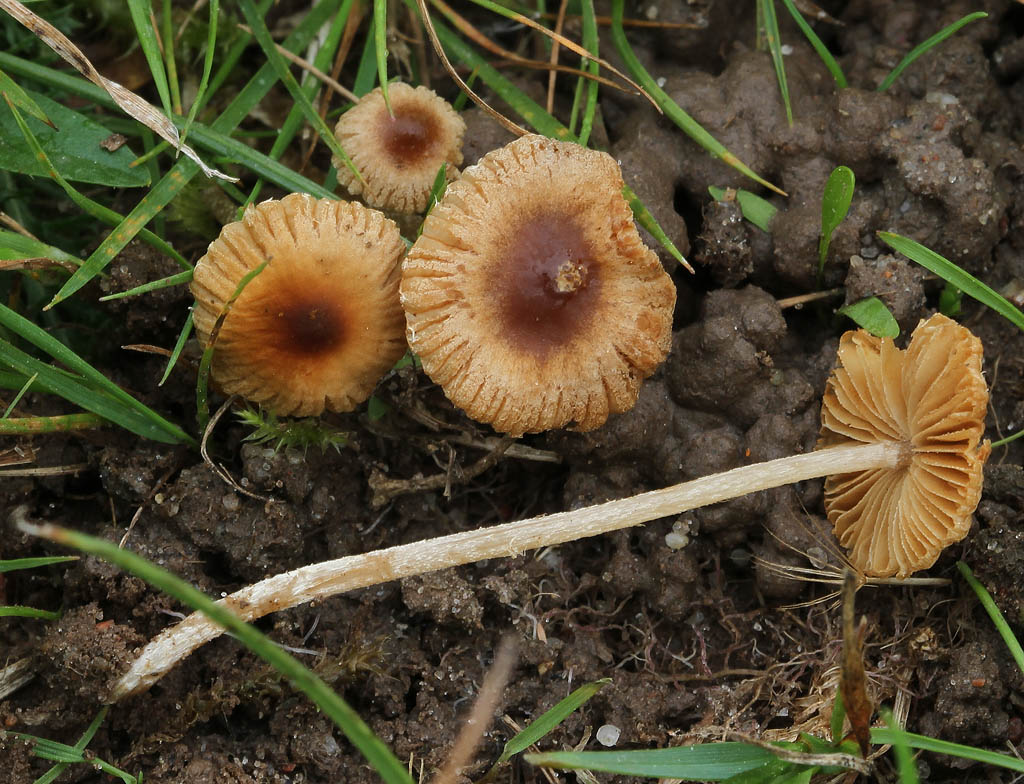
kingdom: Fungi
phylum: Basidiomycota
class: Agaricomycetes
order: Agaricales
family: Bolbitiaceae
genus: Pholiotina
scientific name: Pholiotina sulcata
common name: plisseret dansehat
